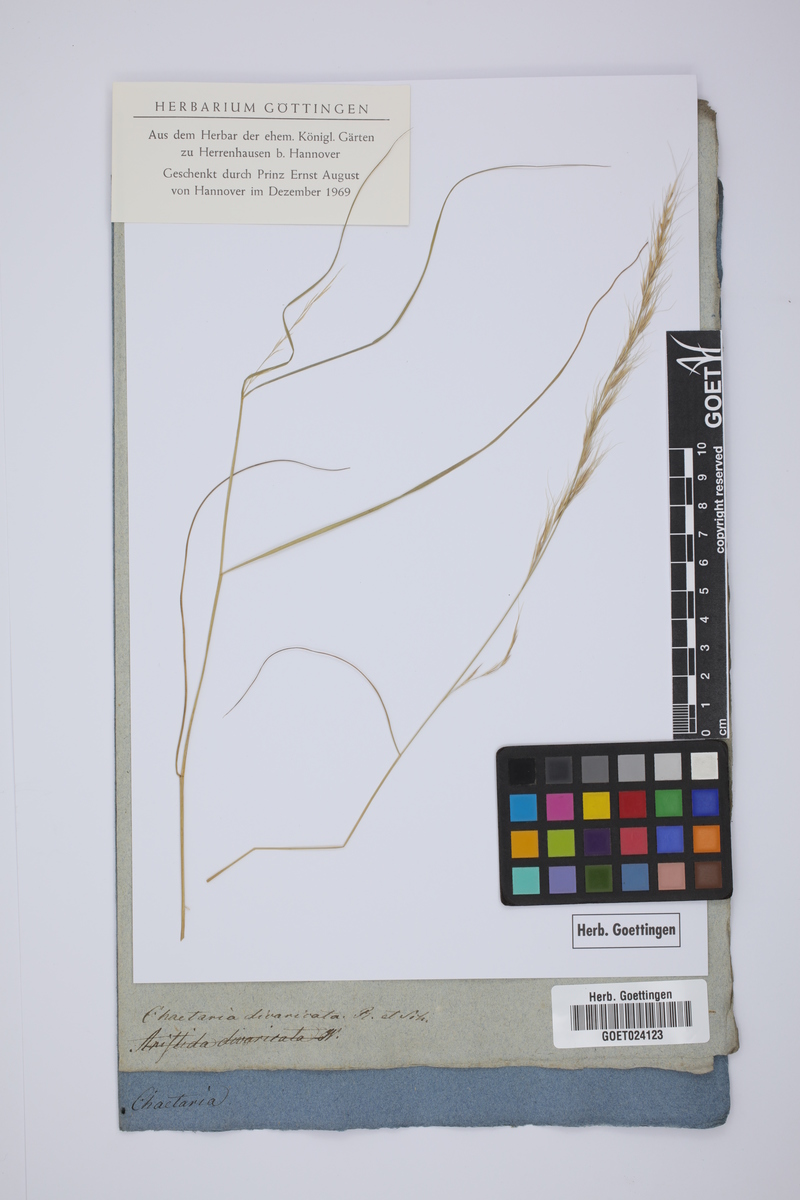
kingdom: Plantae
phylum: Tracheophyta
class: Liliopsida
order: Poales
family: Poaceae
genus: Aristida
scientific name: Aristida divaricata
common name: Poverty grass
